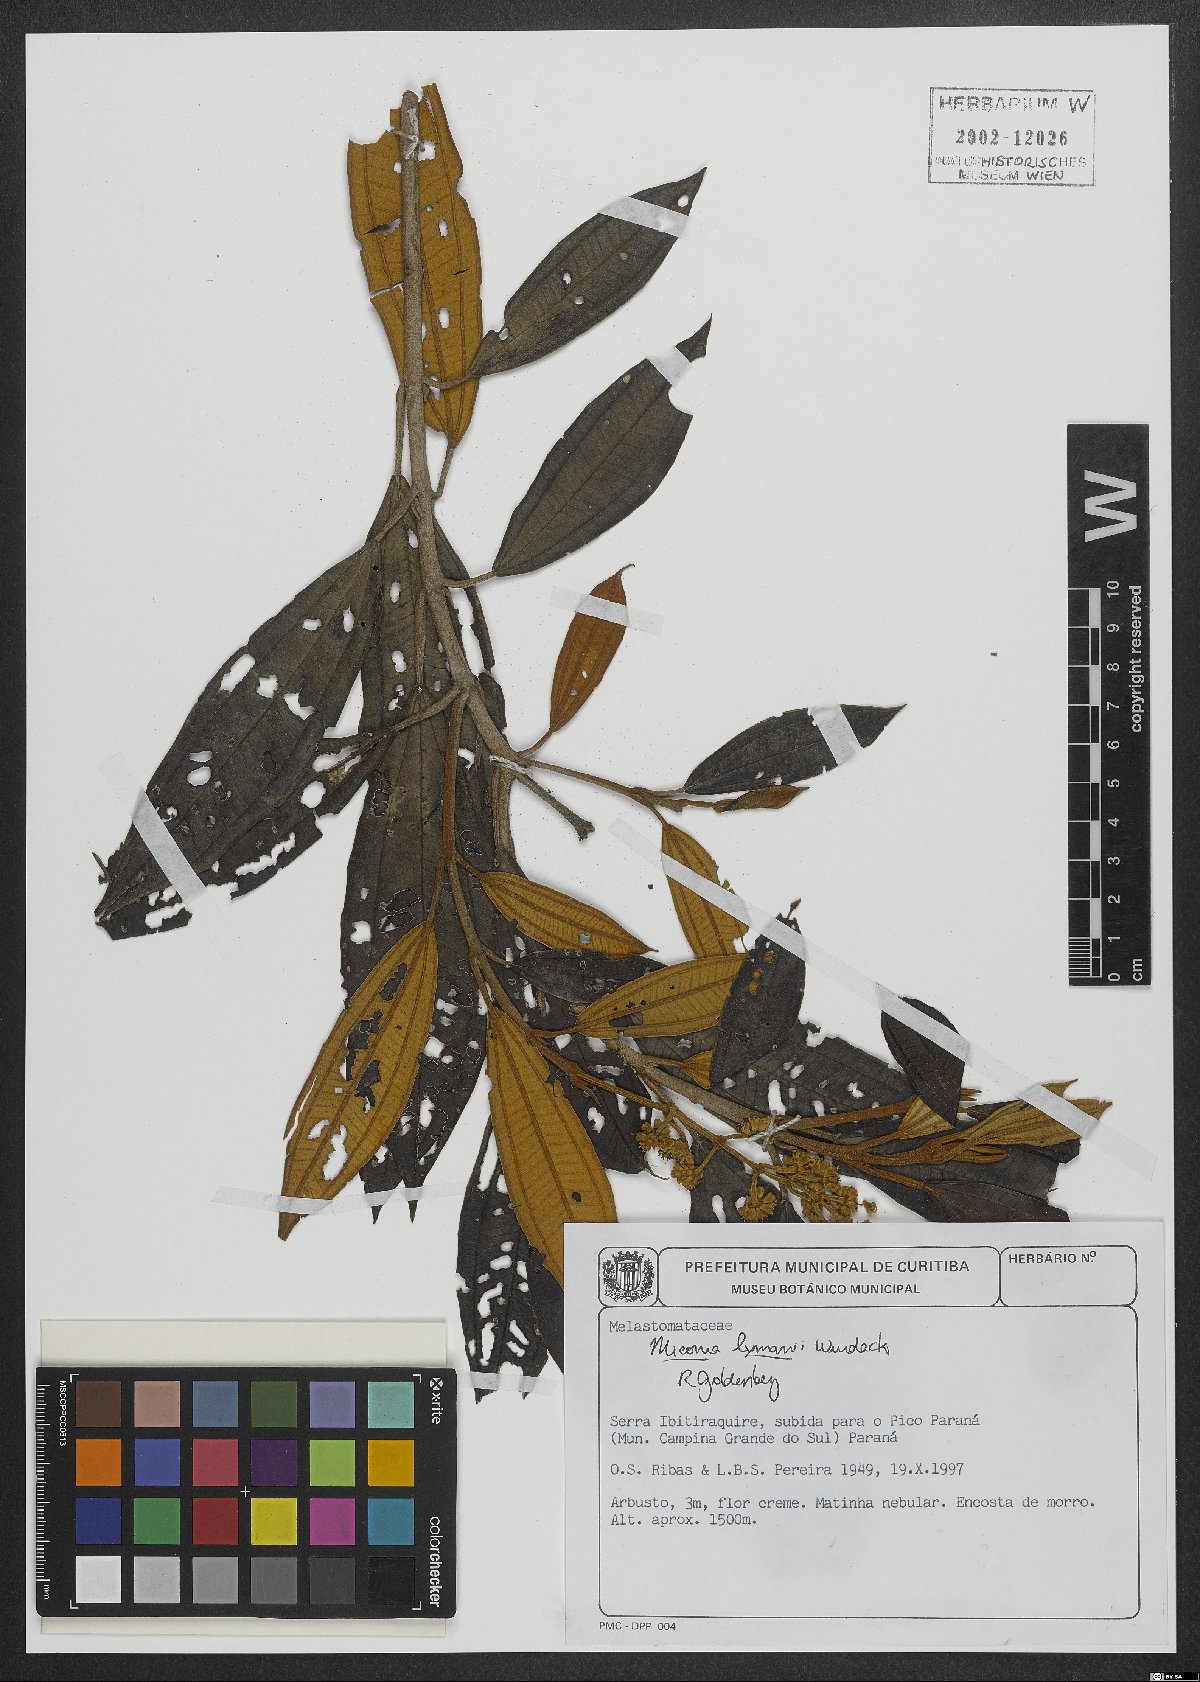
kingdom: Plantae
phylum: Tracheophyta
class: Magnoliopsida
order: Myrtales
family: Melastomataceae
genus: Miconia
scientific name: Miconia lymanii
